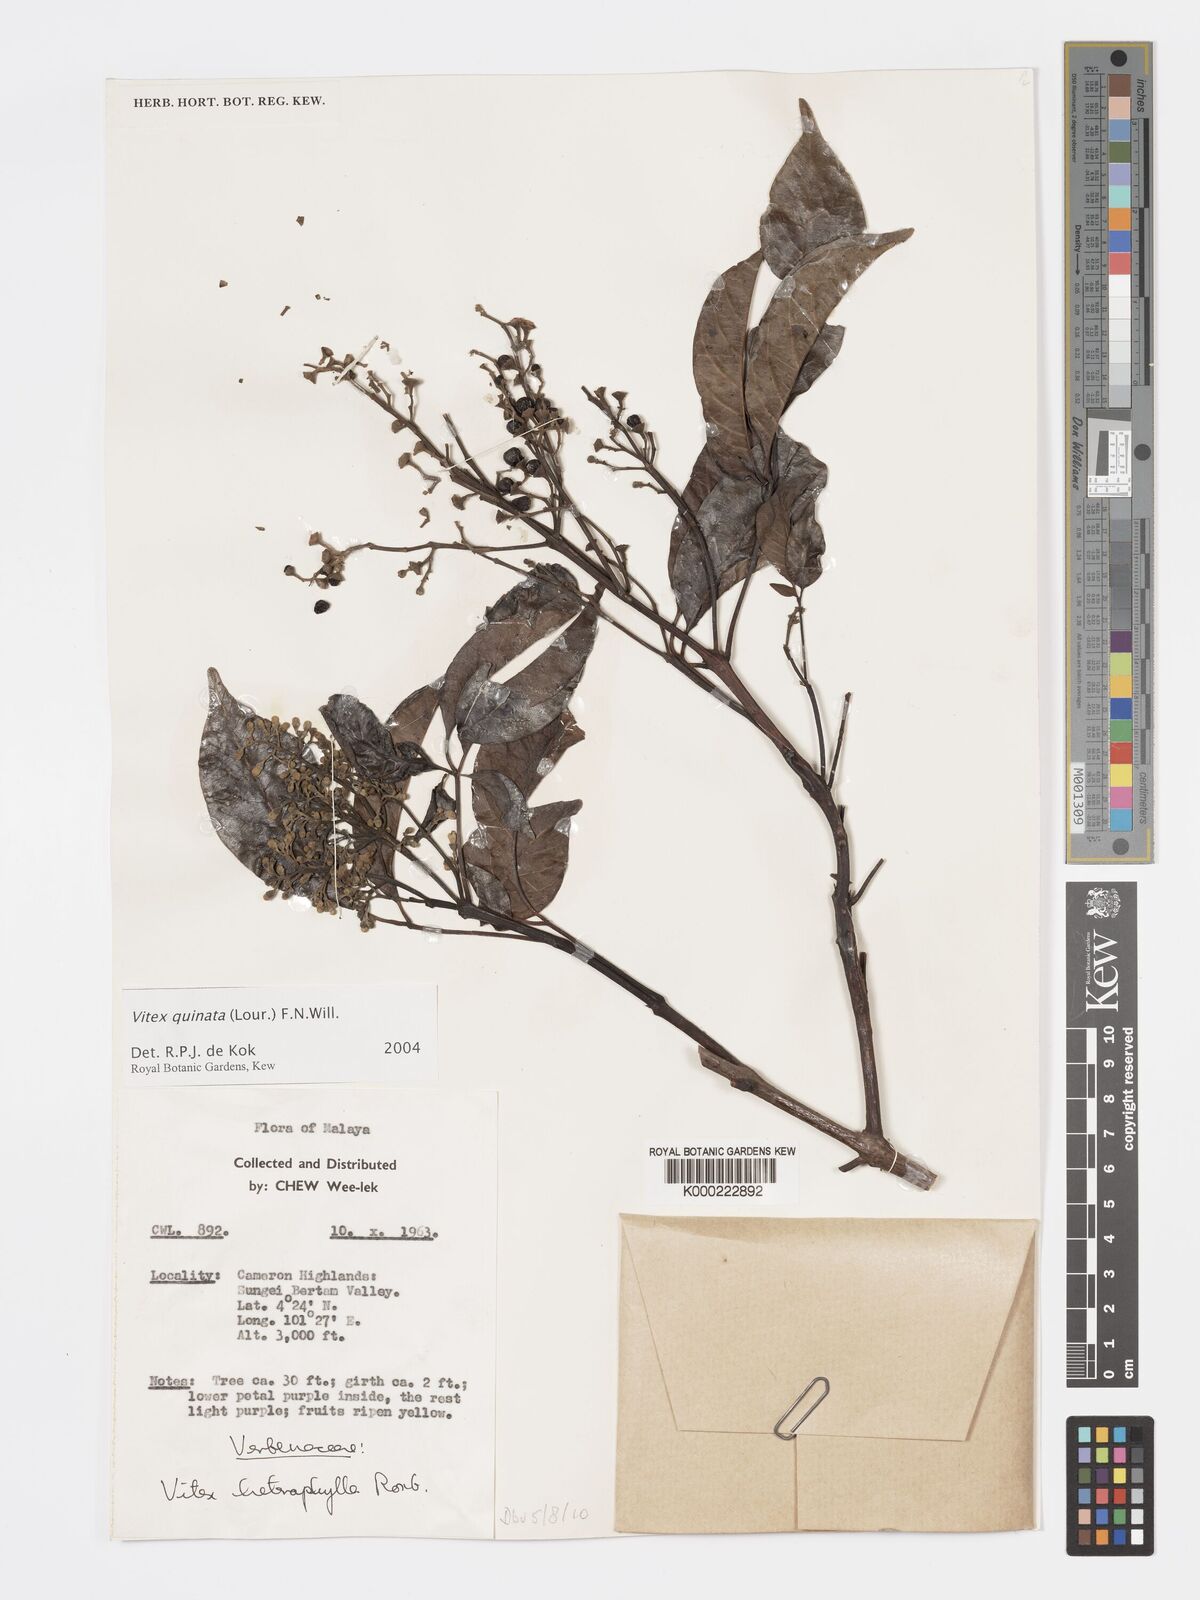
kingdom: Plantae
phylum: Tracheophyta
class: Magnoliopsida
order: Lamiales
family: Lamiaceae
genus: Vitex
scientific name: Vitex quinata
